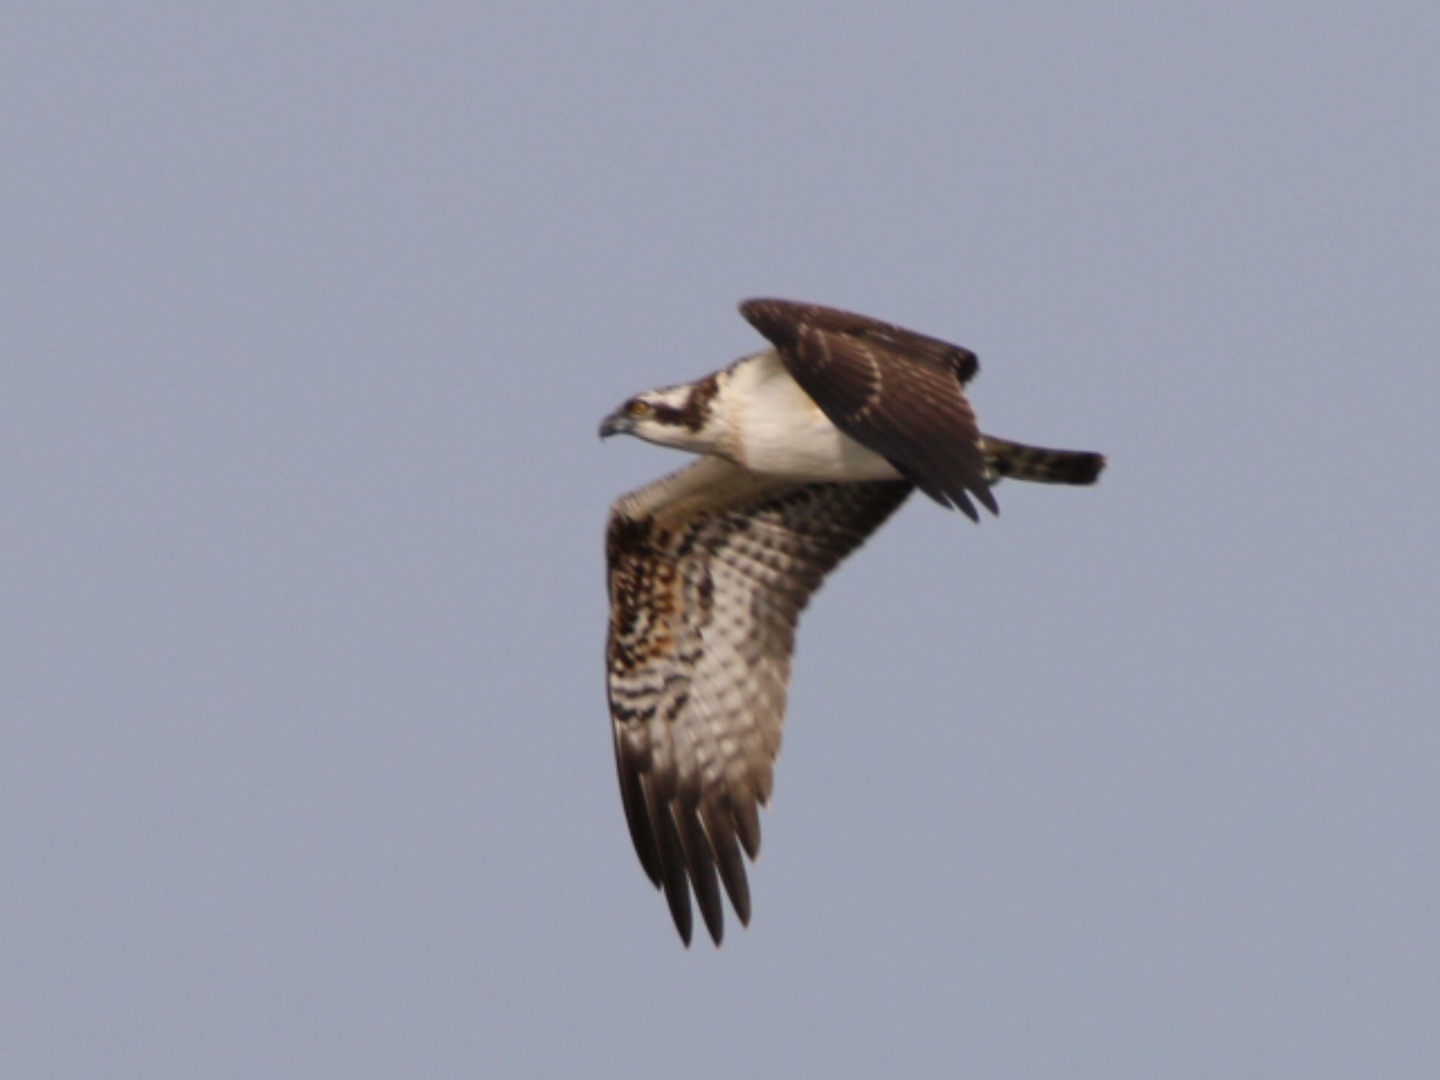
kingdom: Animalia
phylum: Chordata
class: Aves
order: Accipitriformes
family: Pandionidae
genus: Pandion
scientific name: Pandion haliaetus
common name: Fiskeørn
